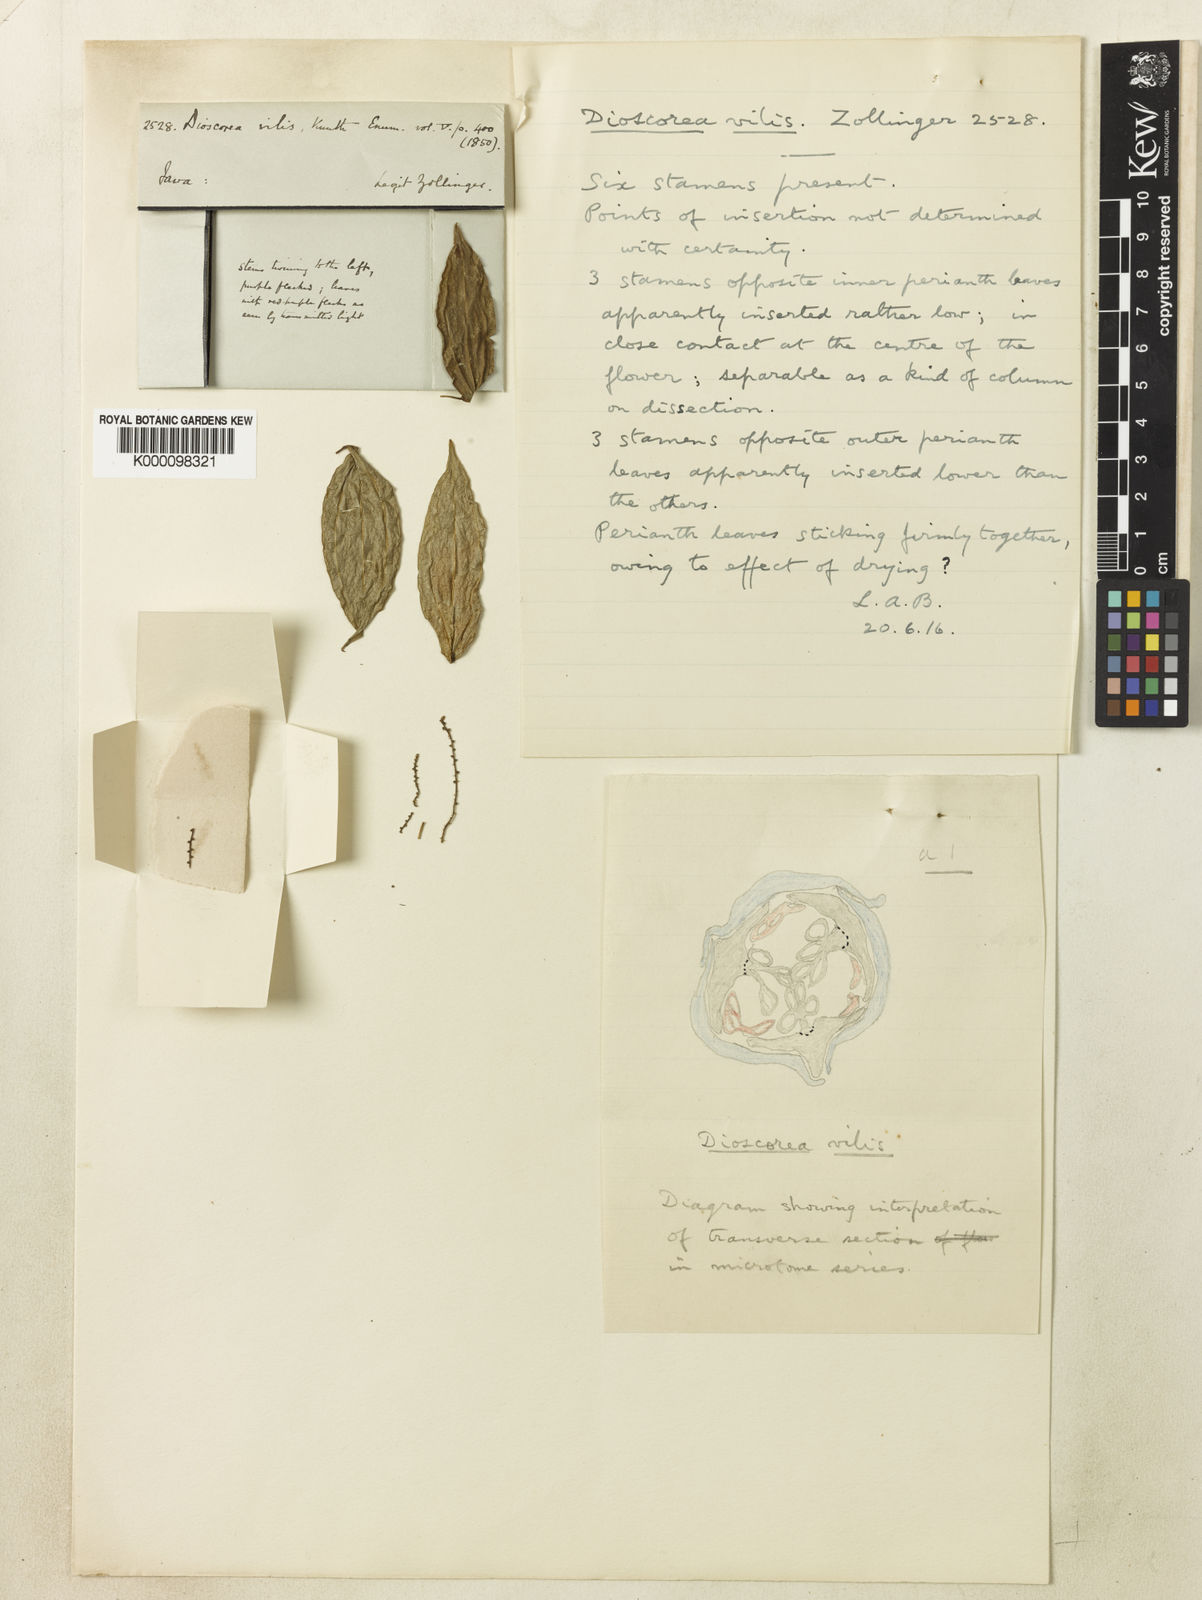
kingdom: Plantae
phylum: Tracheophyta
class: Liliopsida
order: Dioscoreales
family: Dioscoreaceae
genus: Dioscorea
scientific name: Dioscorea filiformis
